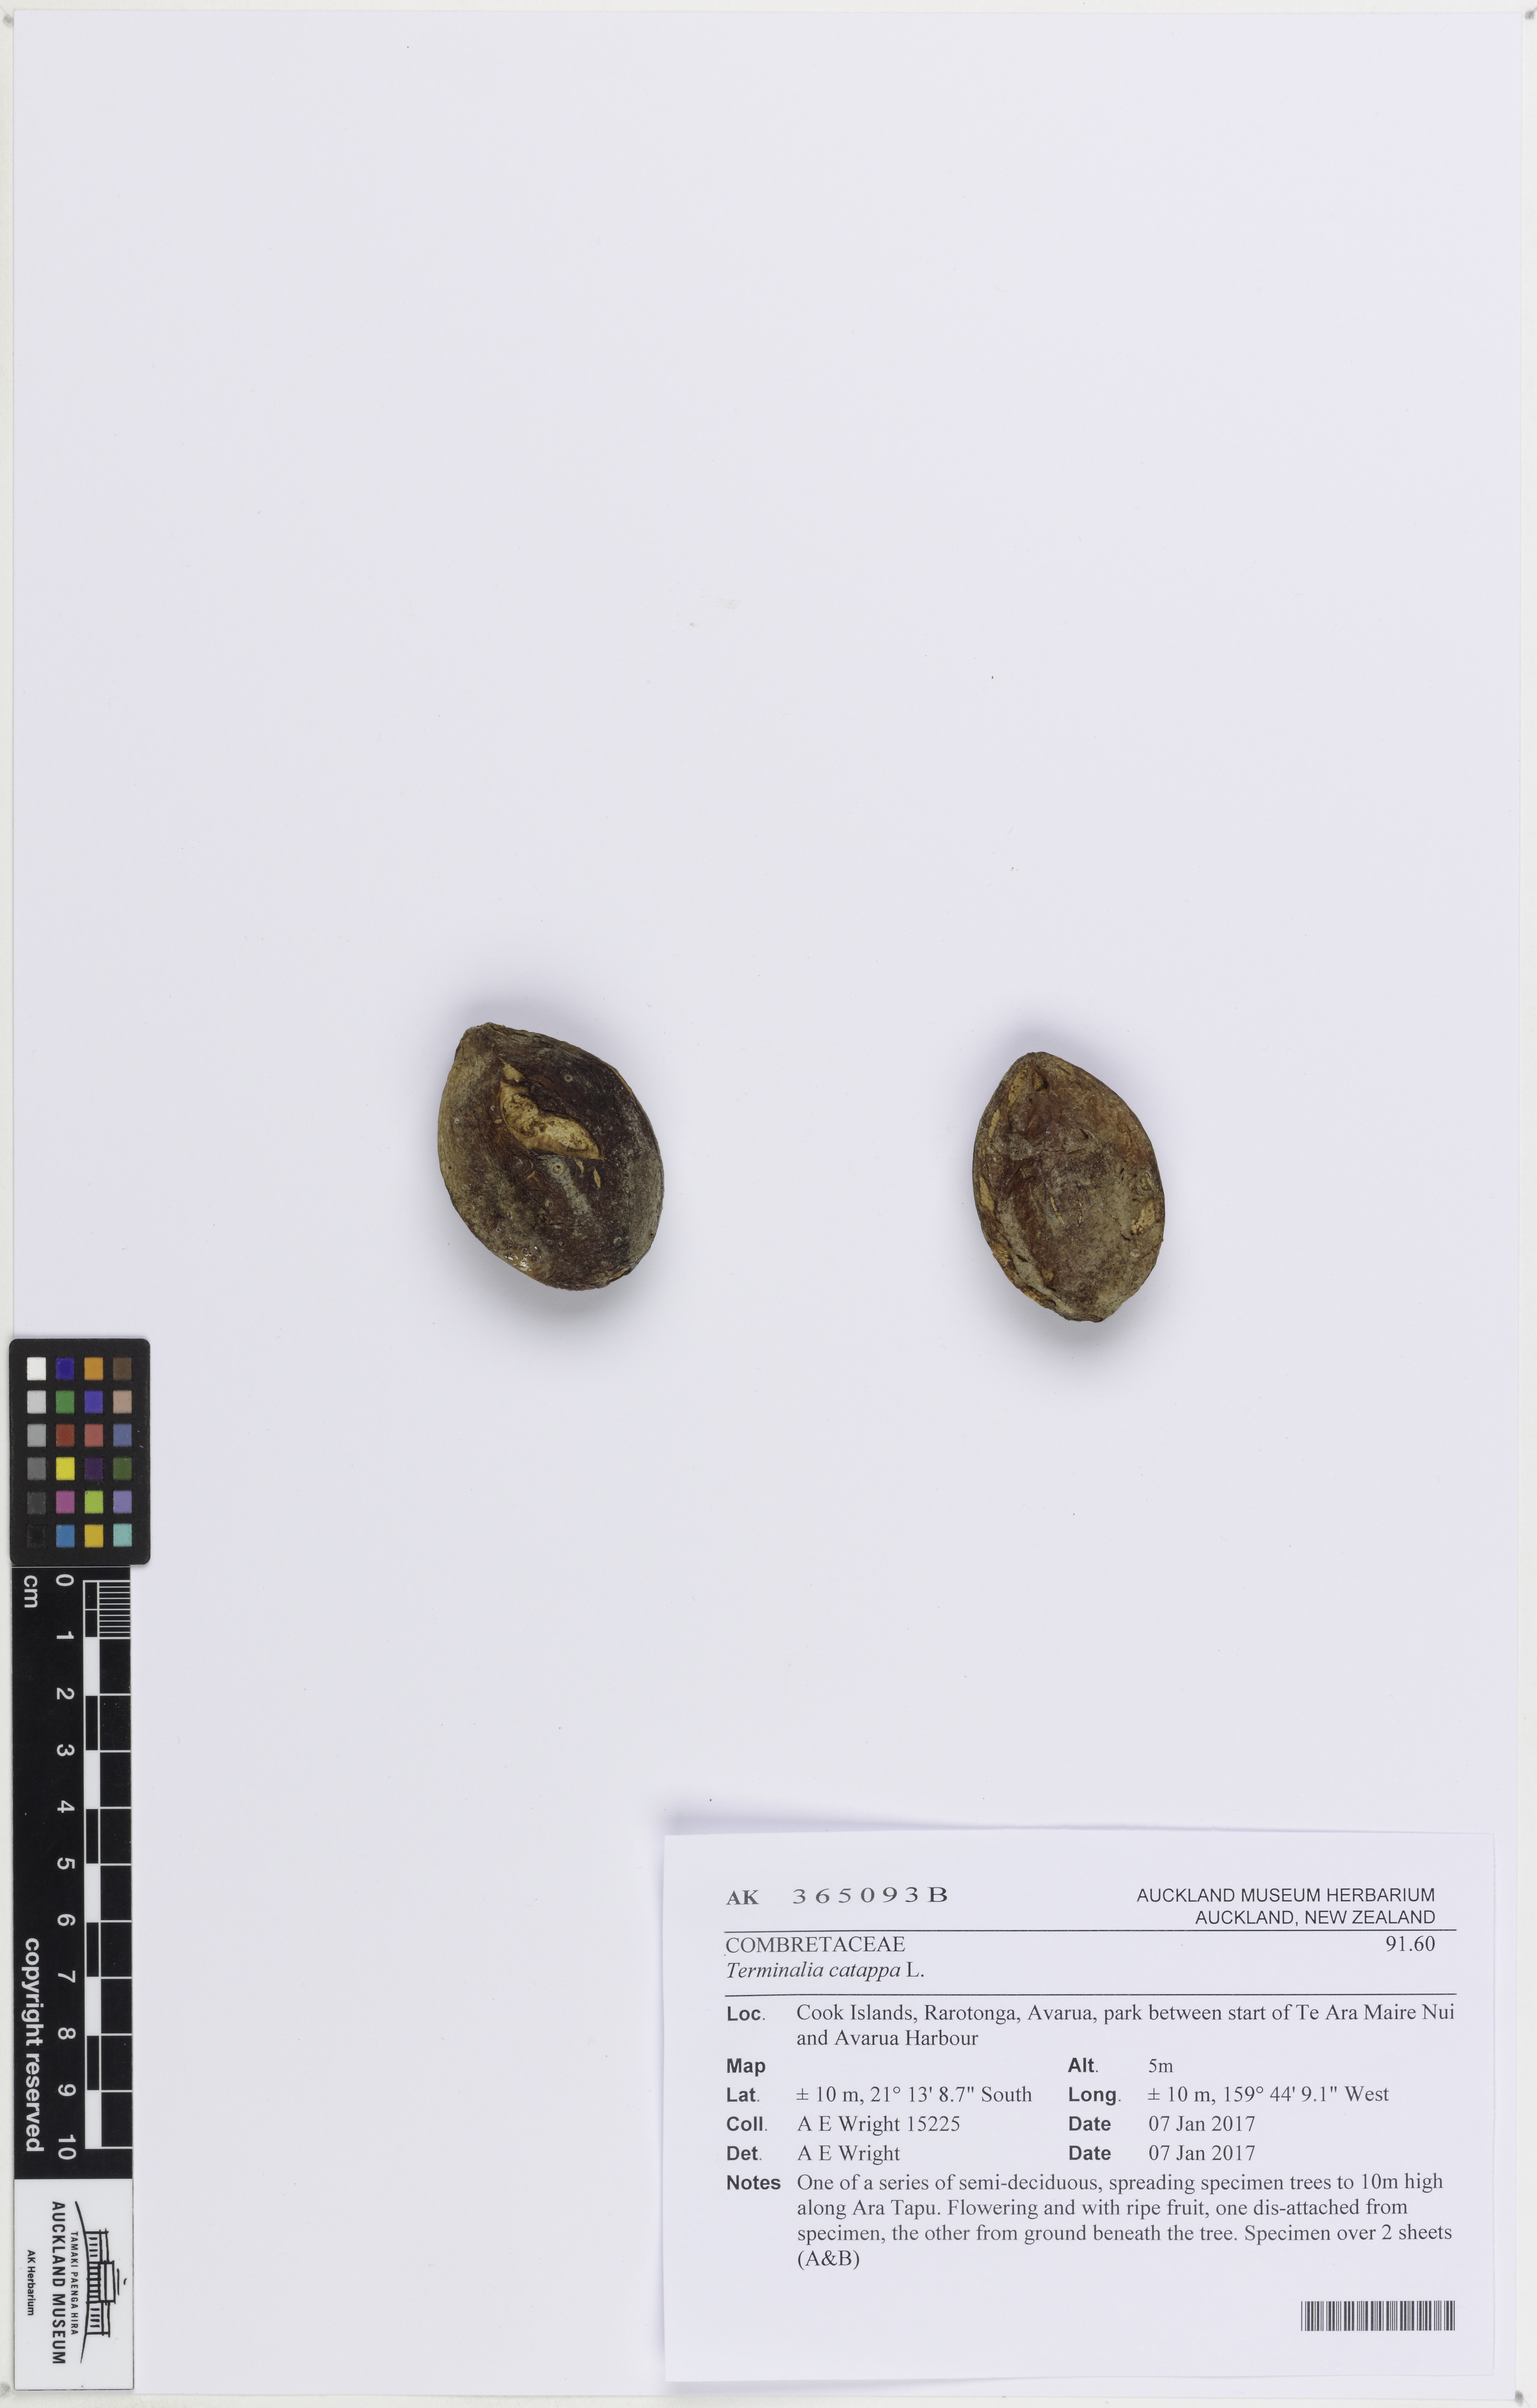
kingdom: Plantae
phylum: Tracheophyta
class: Magnoliopsida
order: Myrtales
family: Combretaceae
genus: Terminalia
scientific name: Terminalia catappa
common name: Tropical almond
